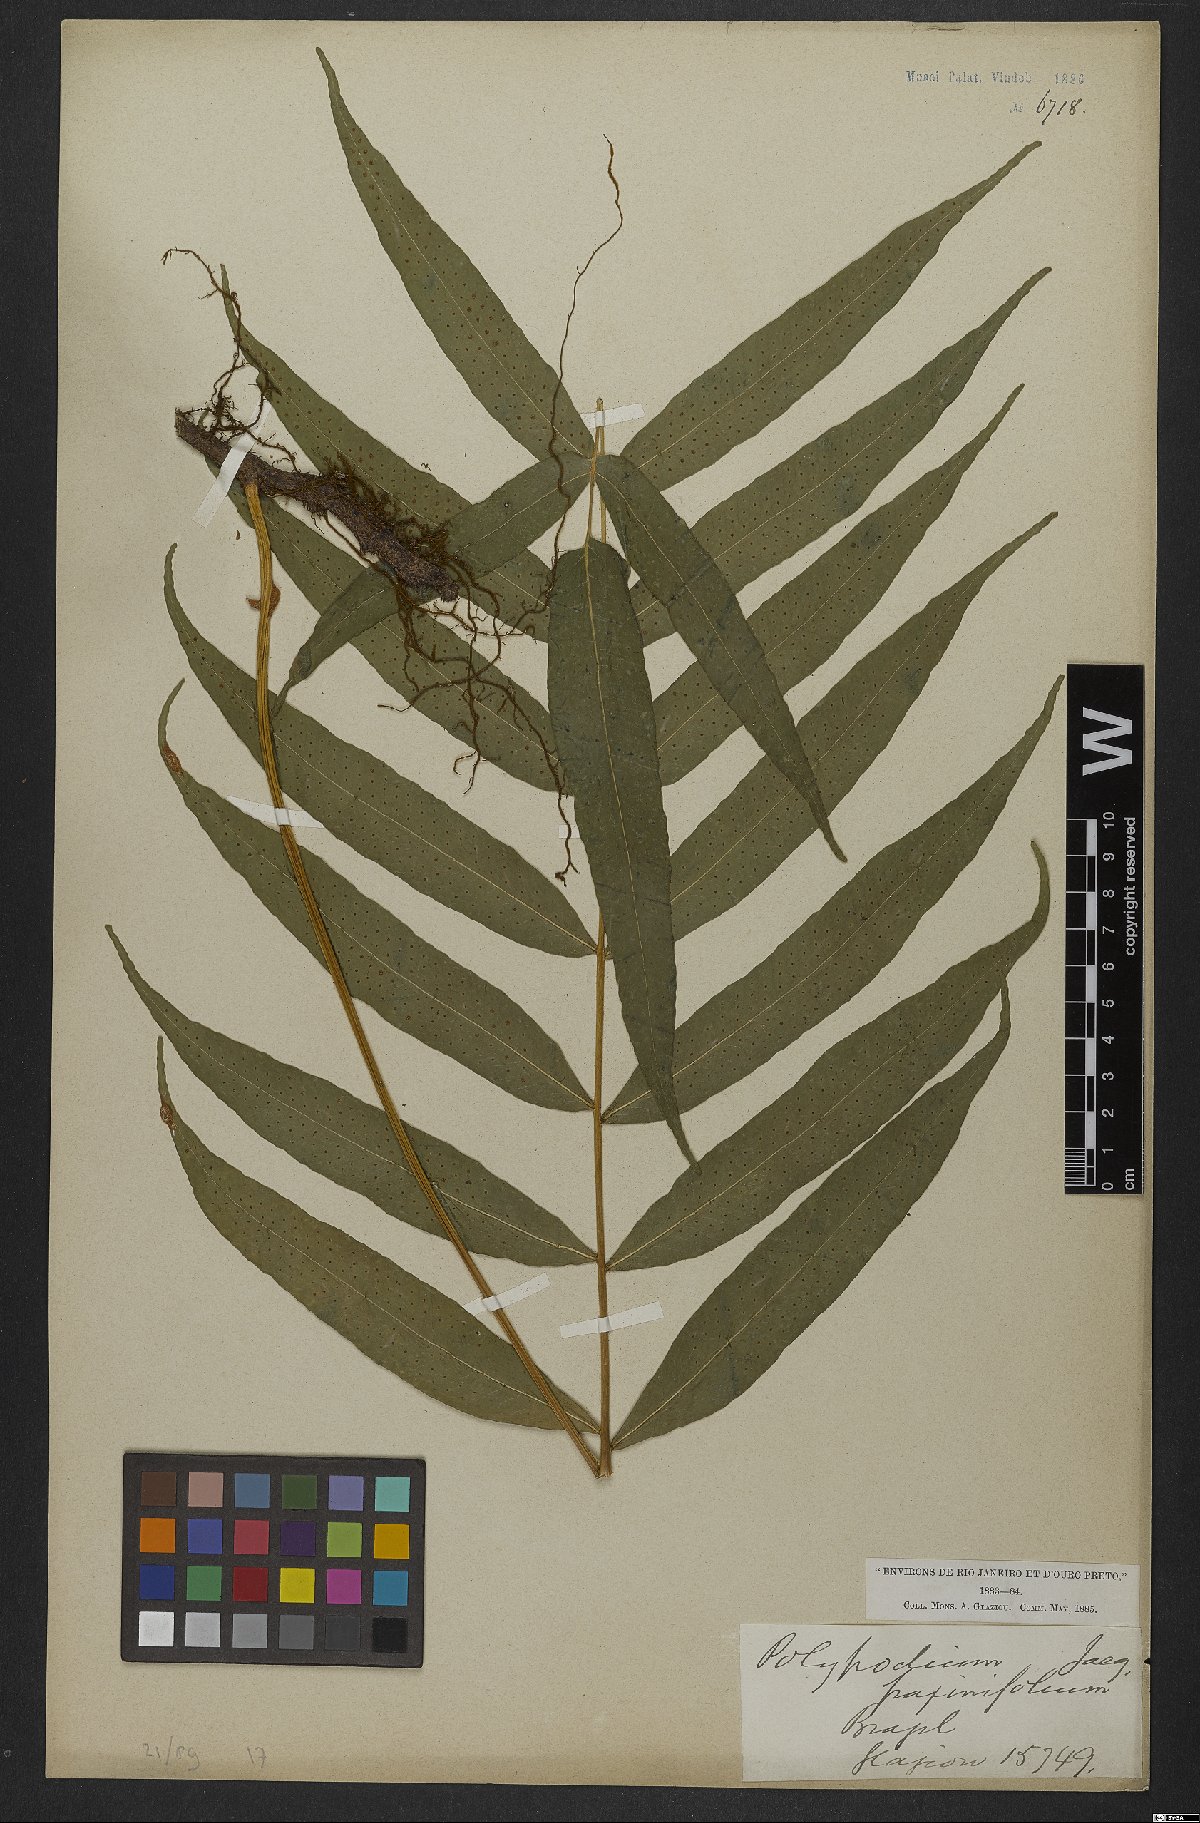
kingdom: Plantae
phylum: Tracheophyta
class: Polypodiopsida
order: Polypodiales
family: Polypodiaceae
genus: Serpocaulon
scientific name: Serpocaulon fraxinifolium
